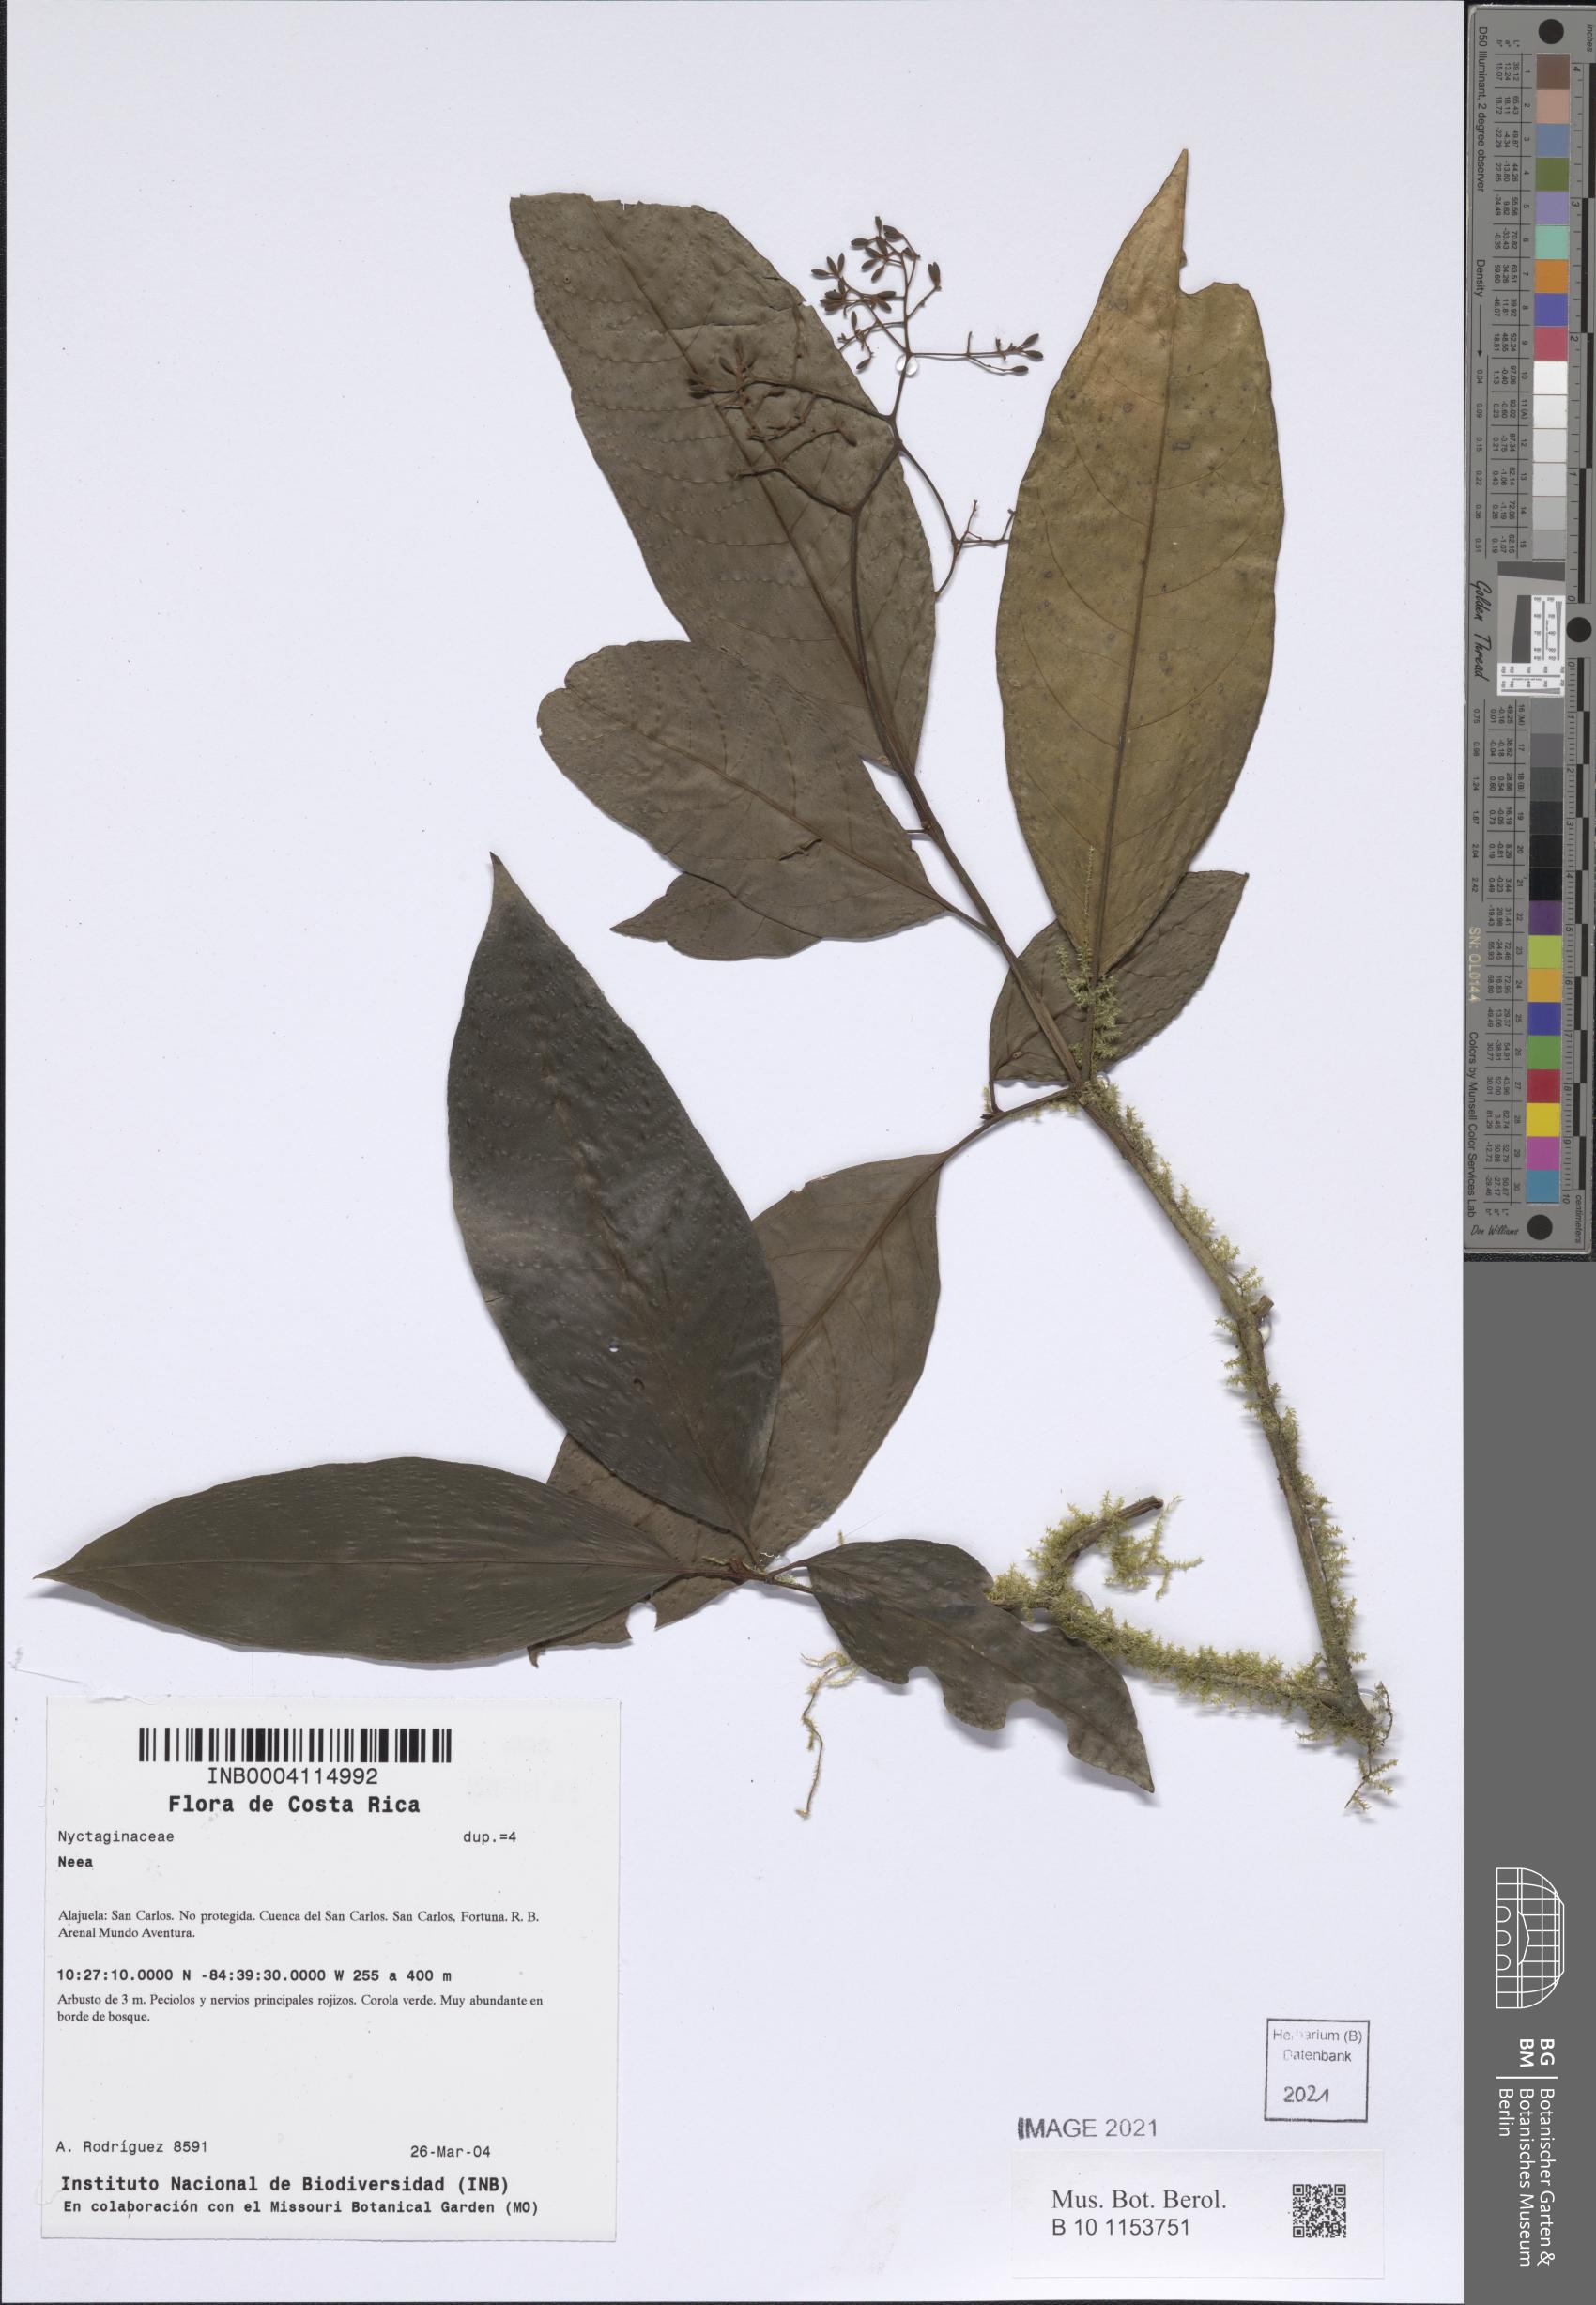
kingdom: Plantae
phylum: Tracheophyta
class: Magnoliopsida
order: Caryophyllales
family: Nyctaginaceae
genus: Neea
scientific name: Neea
